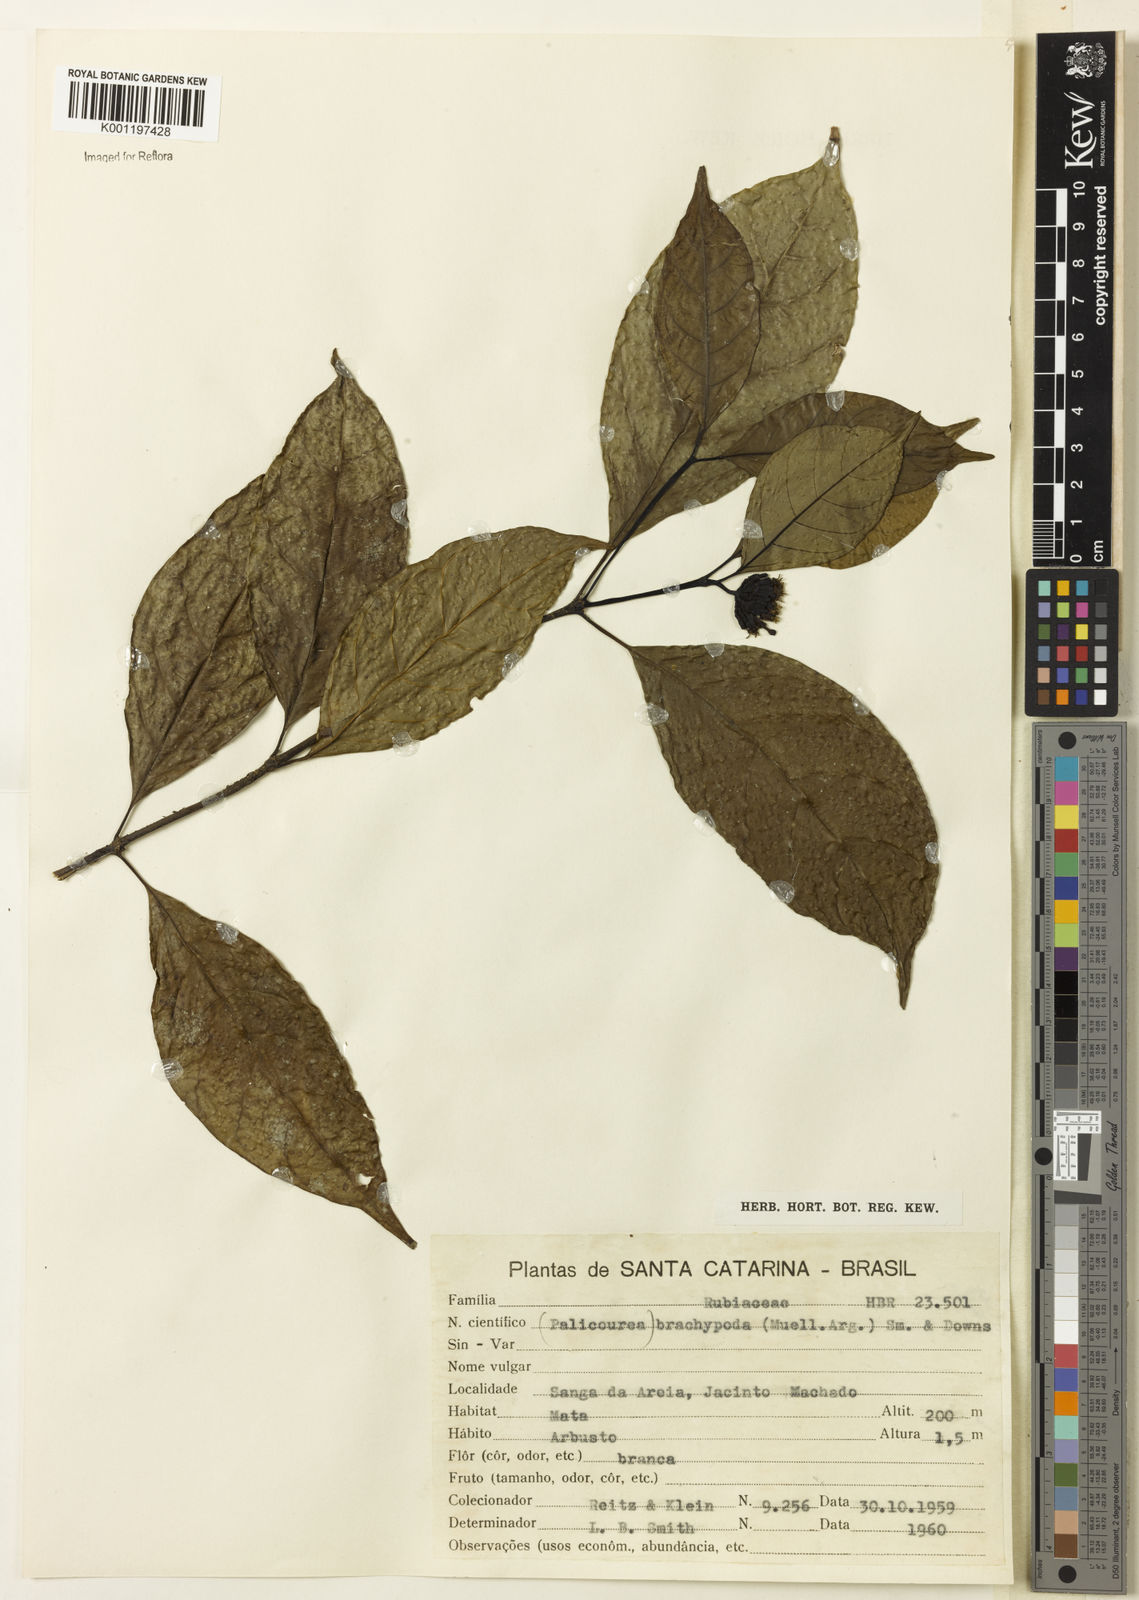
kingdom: Plantae
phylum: Tracheophyta
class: Magnoliopsida
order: Gentianales
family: Rubiaceae
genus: Psychotria
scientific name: Psychotria
